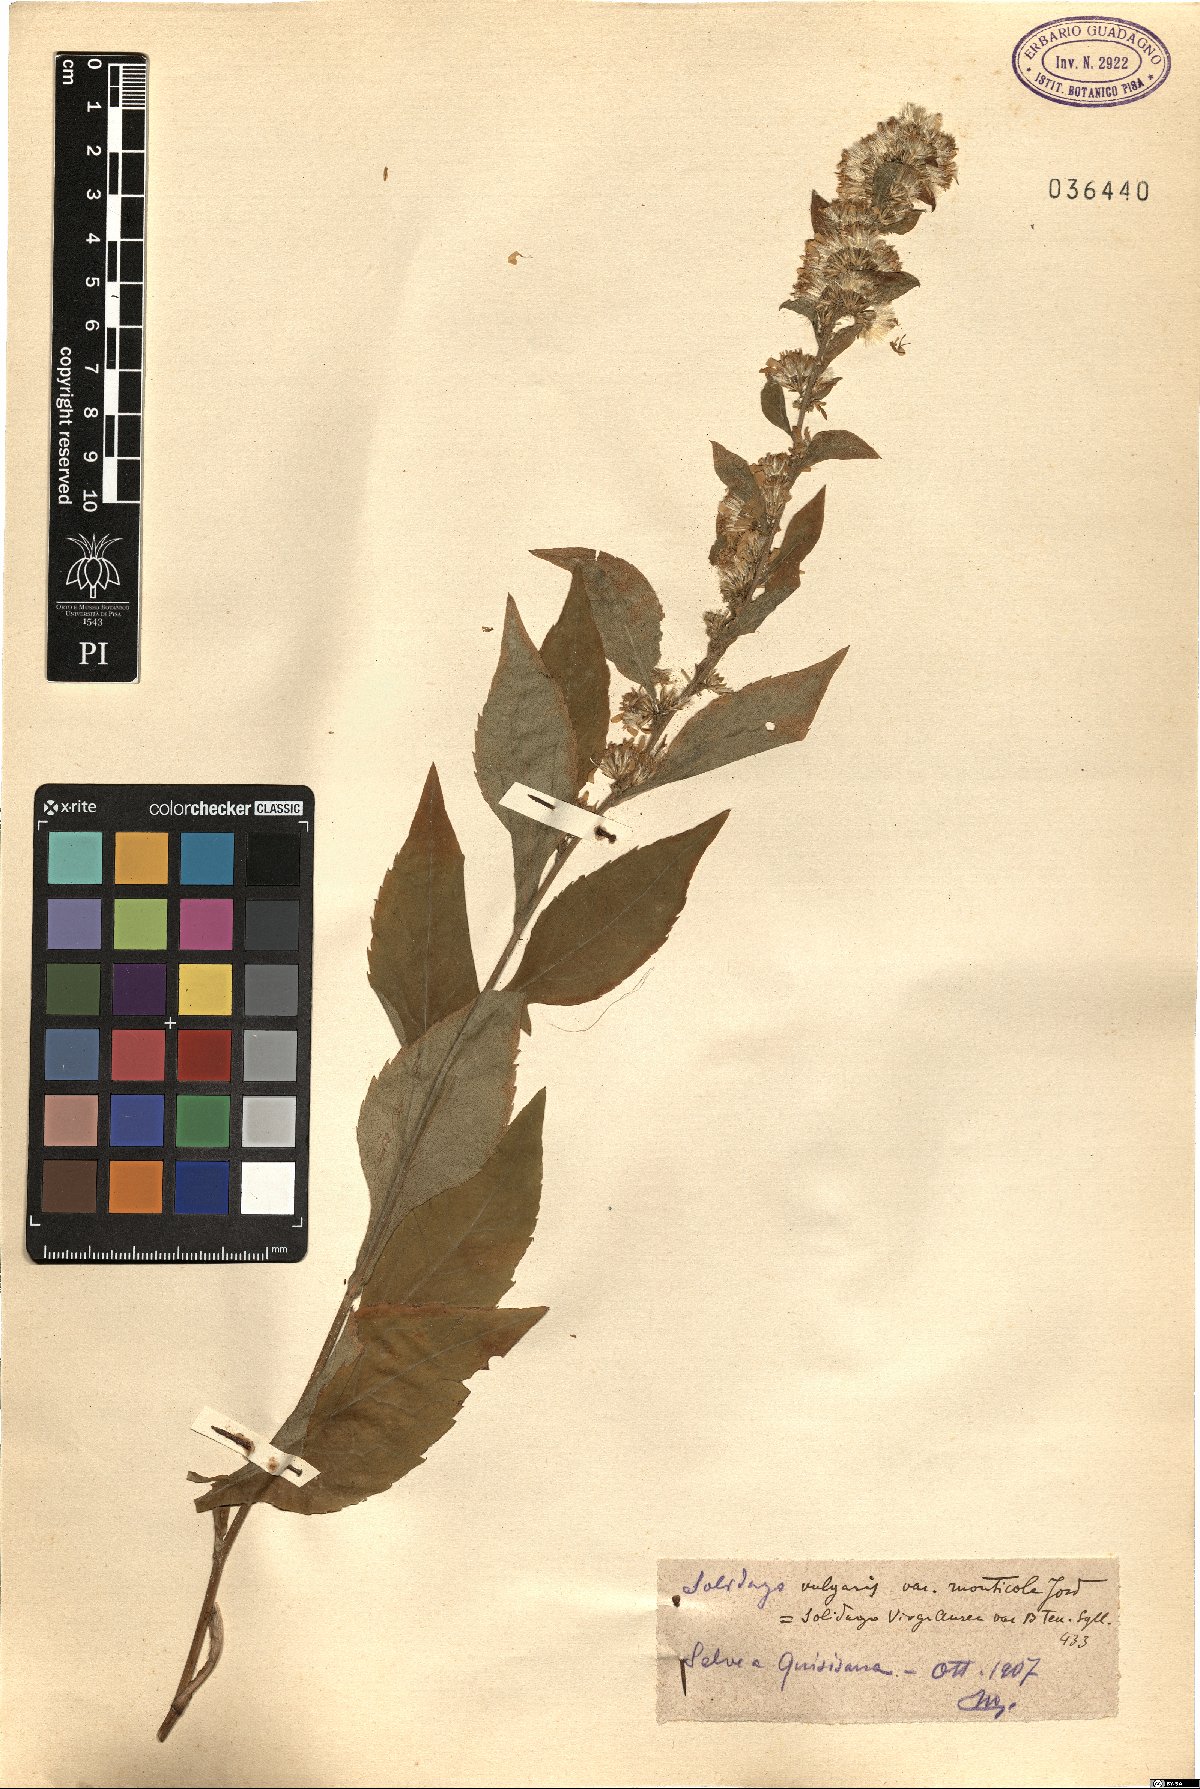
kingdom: Plantae
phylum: Tracheophyta
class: Magnoliopsida
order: Asterales
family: Asteraceae
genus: Solidago
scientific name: Solidago virgaurea
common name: Goldenrod
